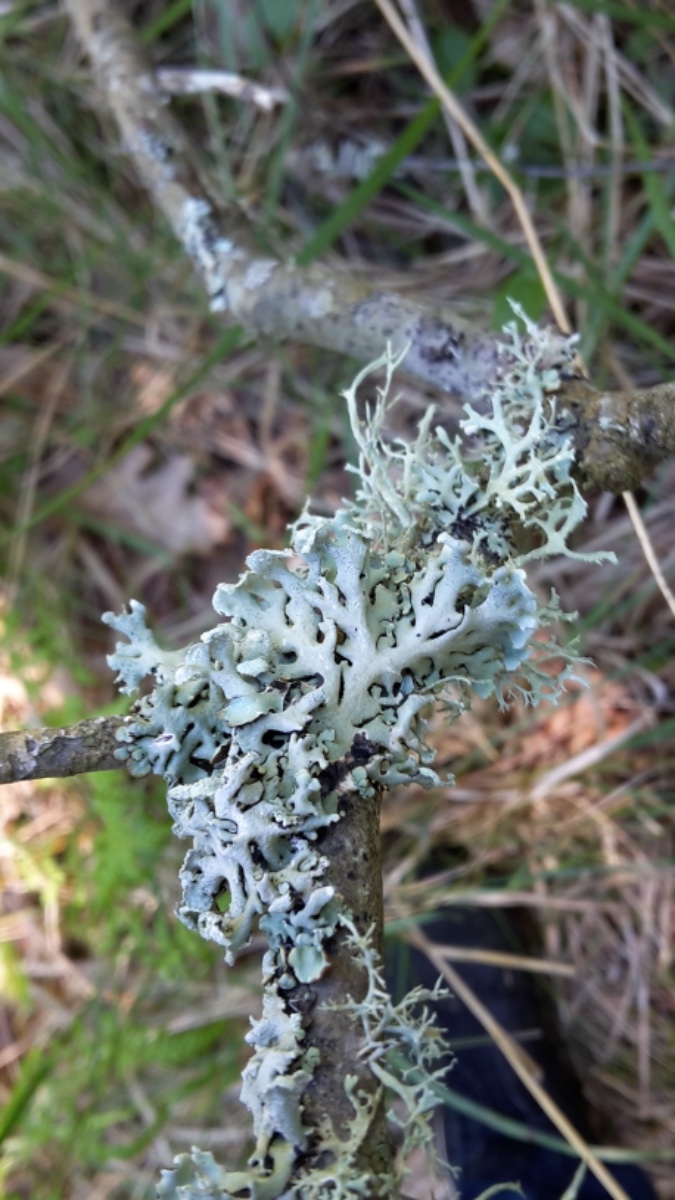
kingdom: Fungi
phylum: Ascomycota
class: Lecanoromycetes
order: Lecanorales
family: Parmeliaceae
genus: Hypogymnia
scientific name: Hypogymnia physodes
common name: almindelig kvistlav
